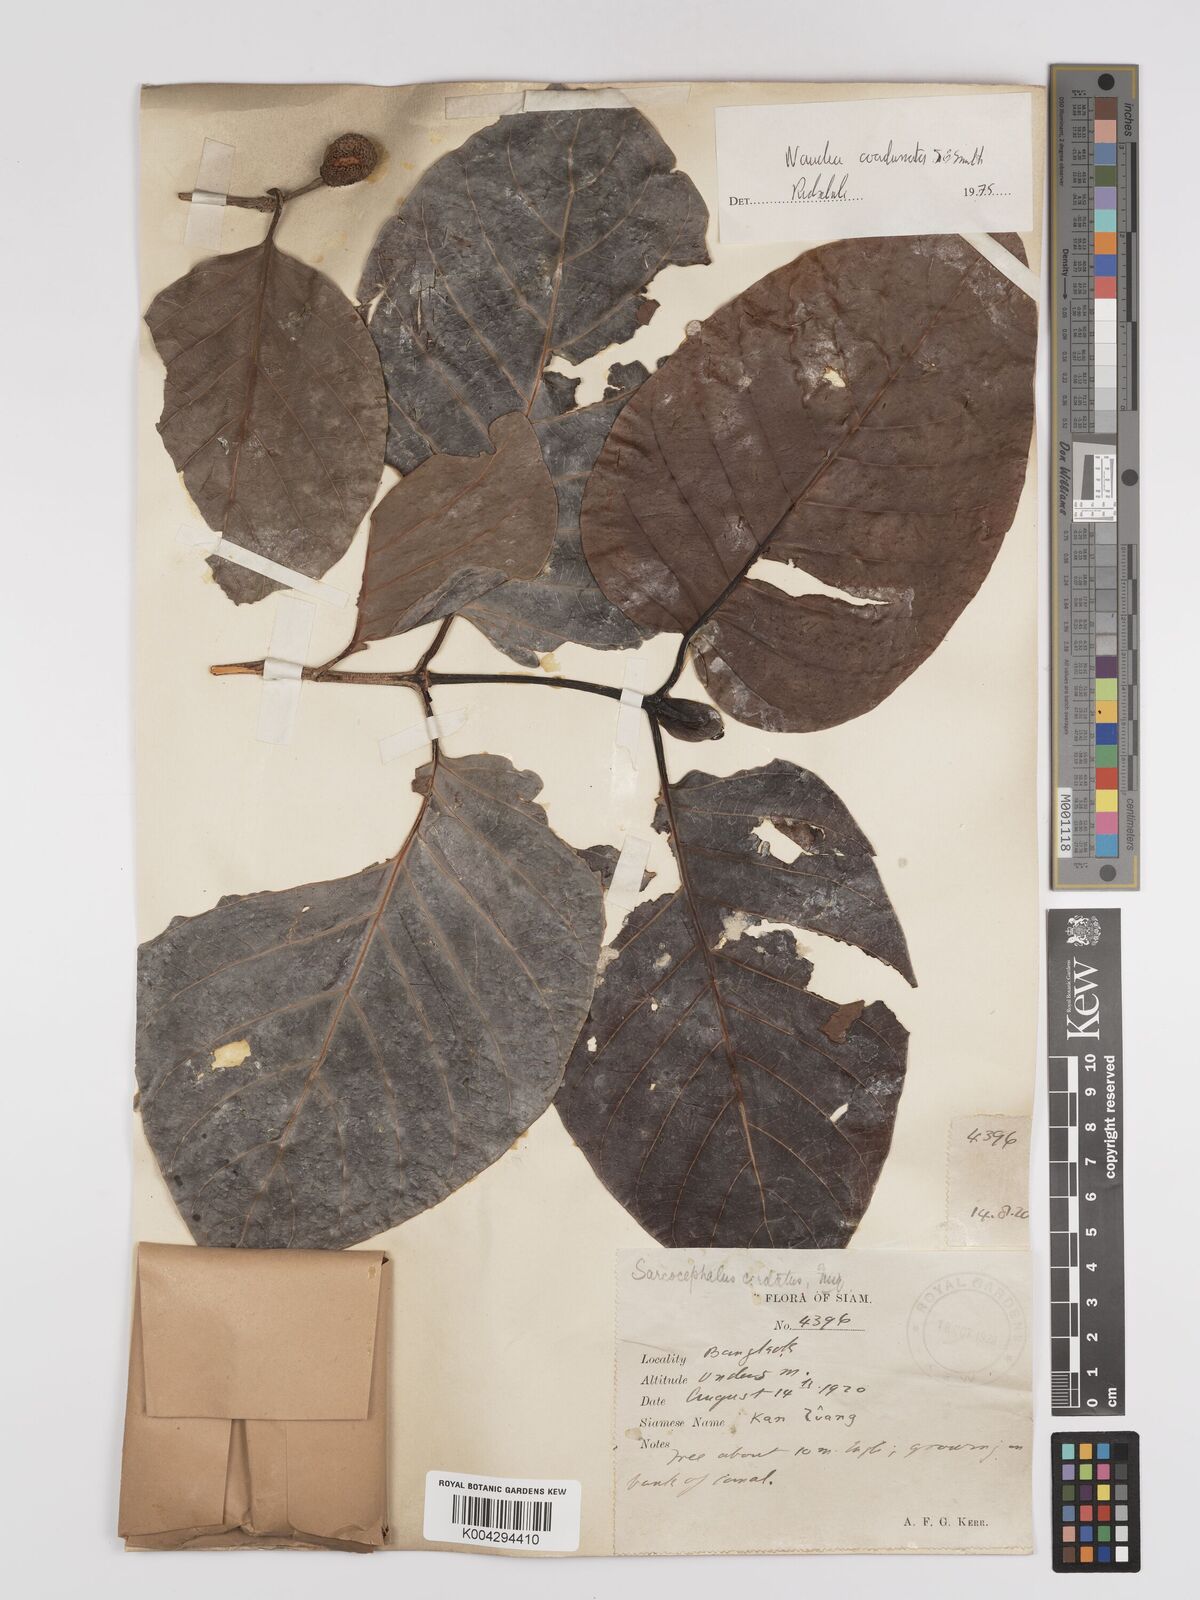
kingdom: Plantae
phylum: Tracheophyta
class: Magnoliopsida
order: Gentianales
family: Rubiaceae
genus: Nauclea
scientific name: Nauclea orientalis
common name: Leichhardt-pine
